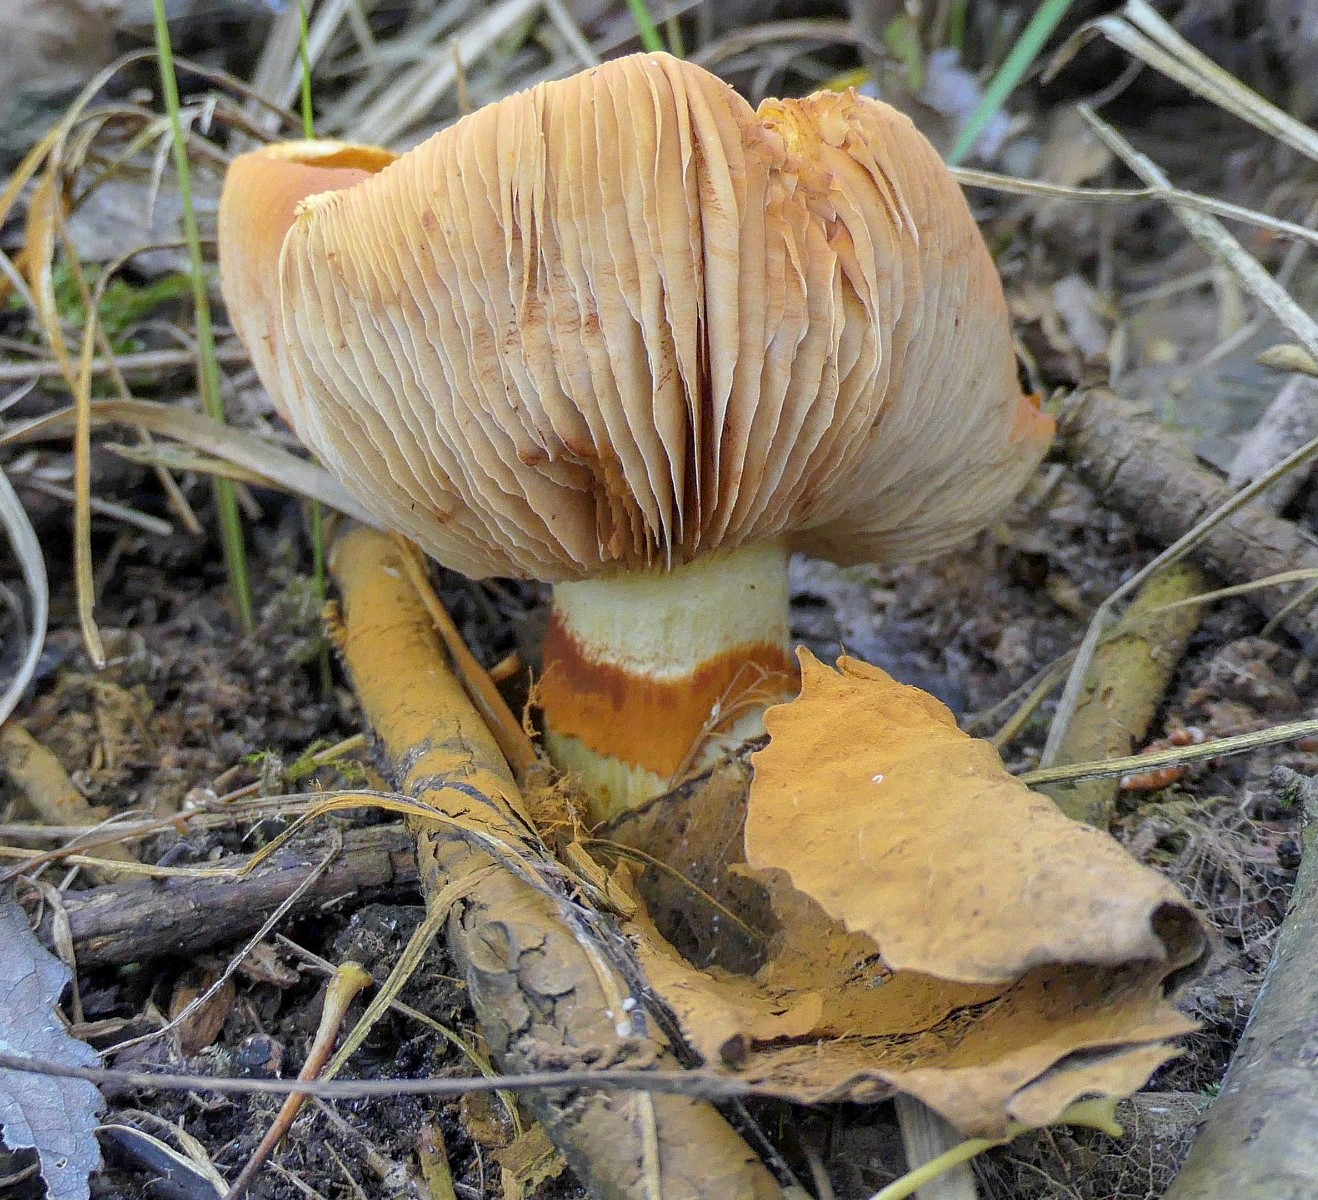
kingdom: Fungi
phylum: Basidiomycota
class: Agaricomycetes
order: Agaricales
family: Hymenogastraceae
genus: Gymnopilus
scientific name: Gymnopilus spectabilis
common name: fibret flammehat
